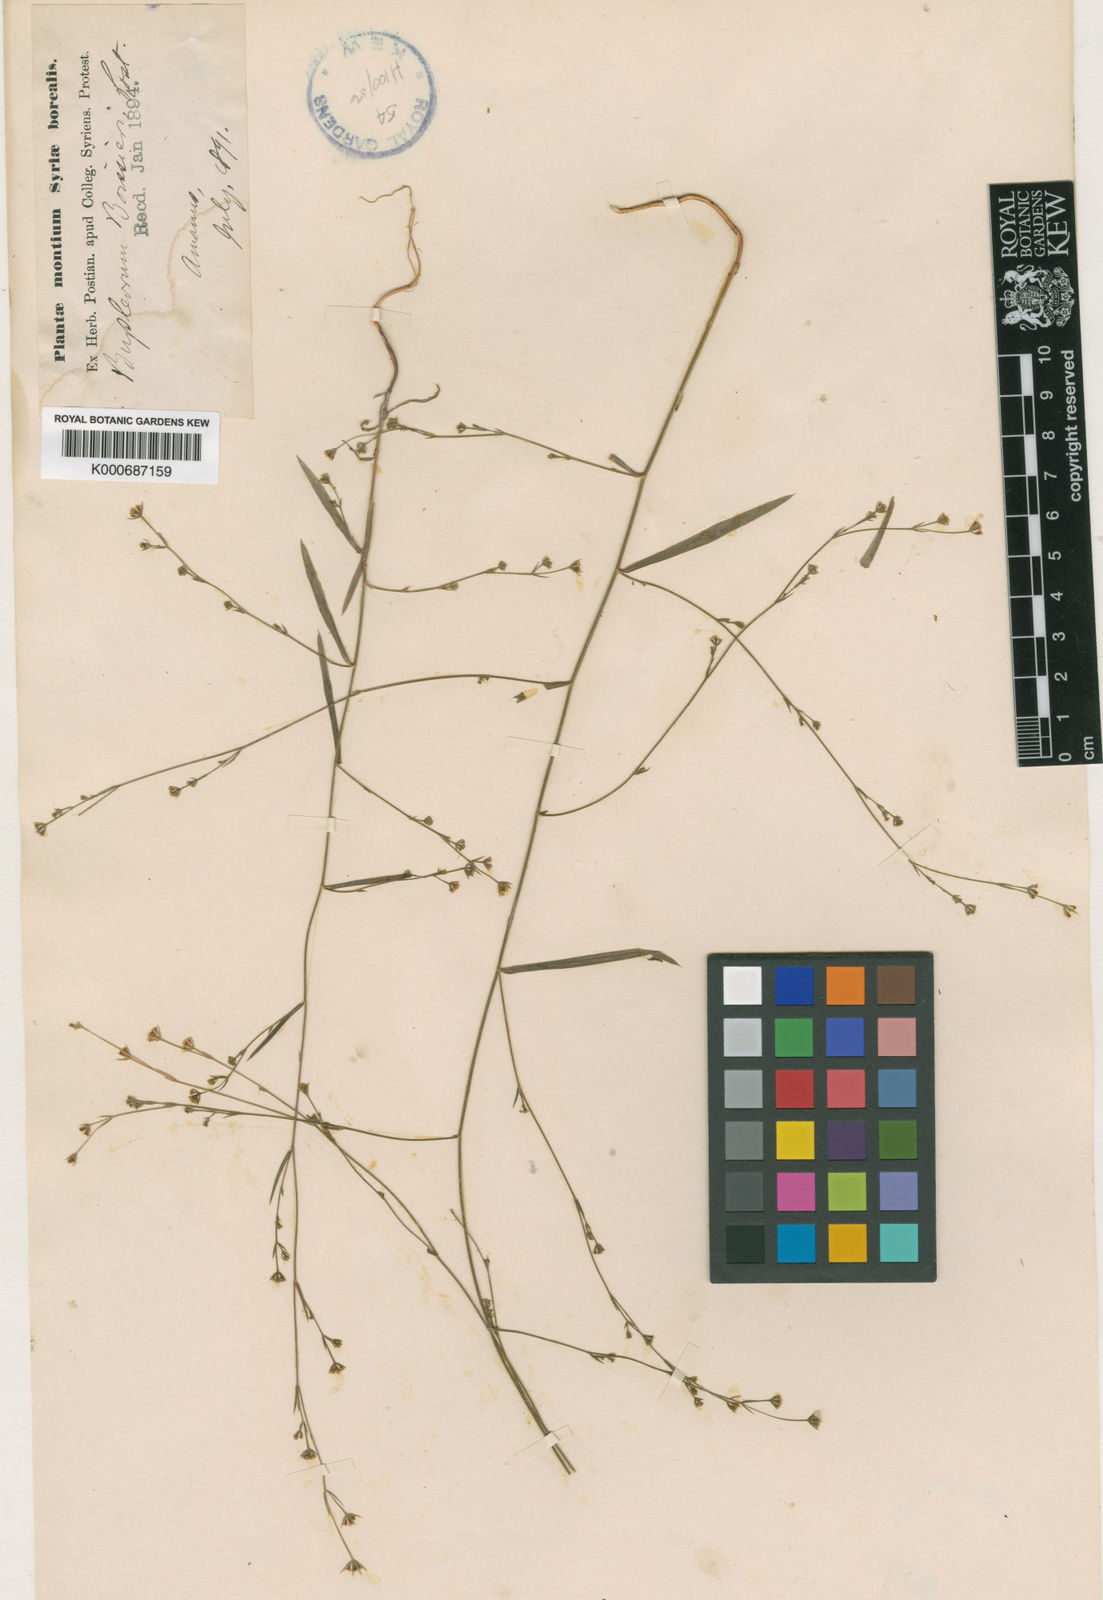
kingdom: Plantae
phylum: Tracheophyta
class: Magnoliopsida
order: Apiales
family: Apiaceae
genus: Bupleurum
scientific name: Bupleurum boissieri
